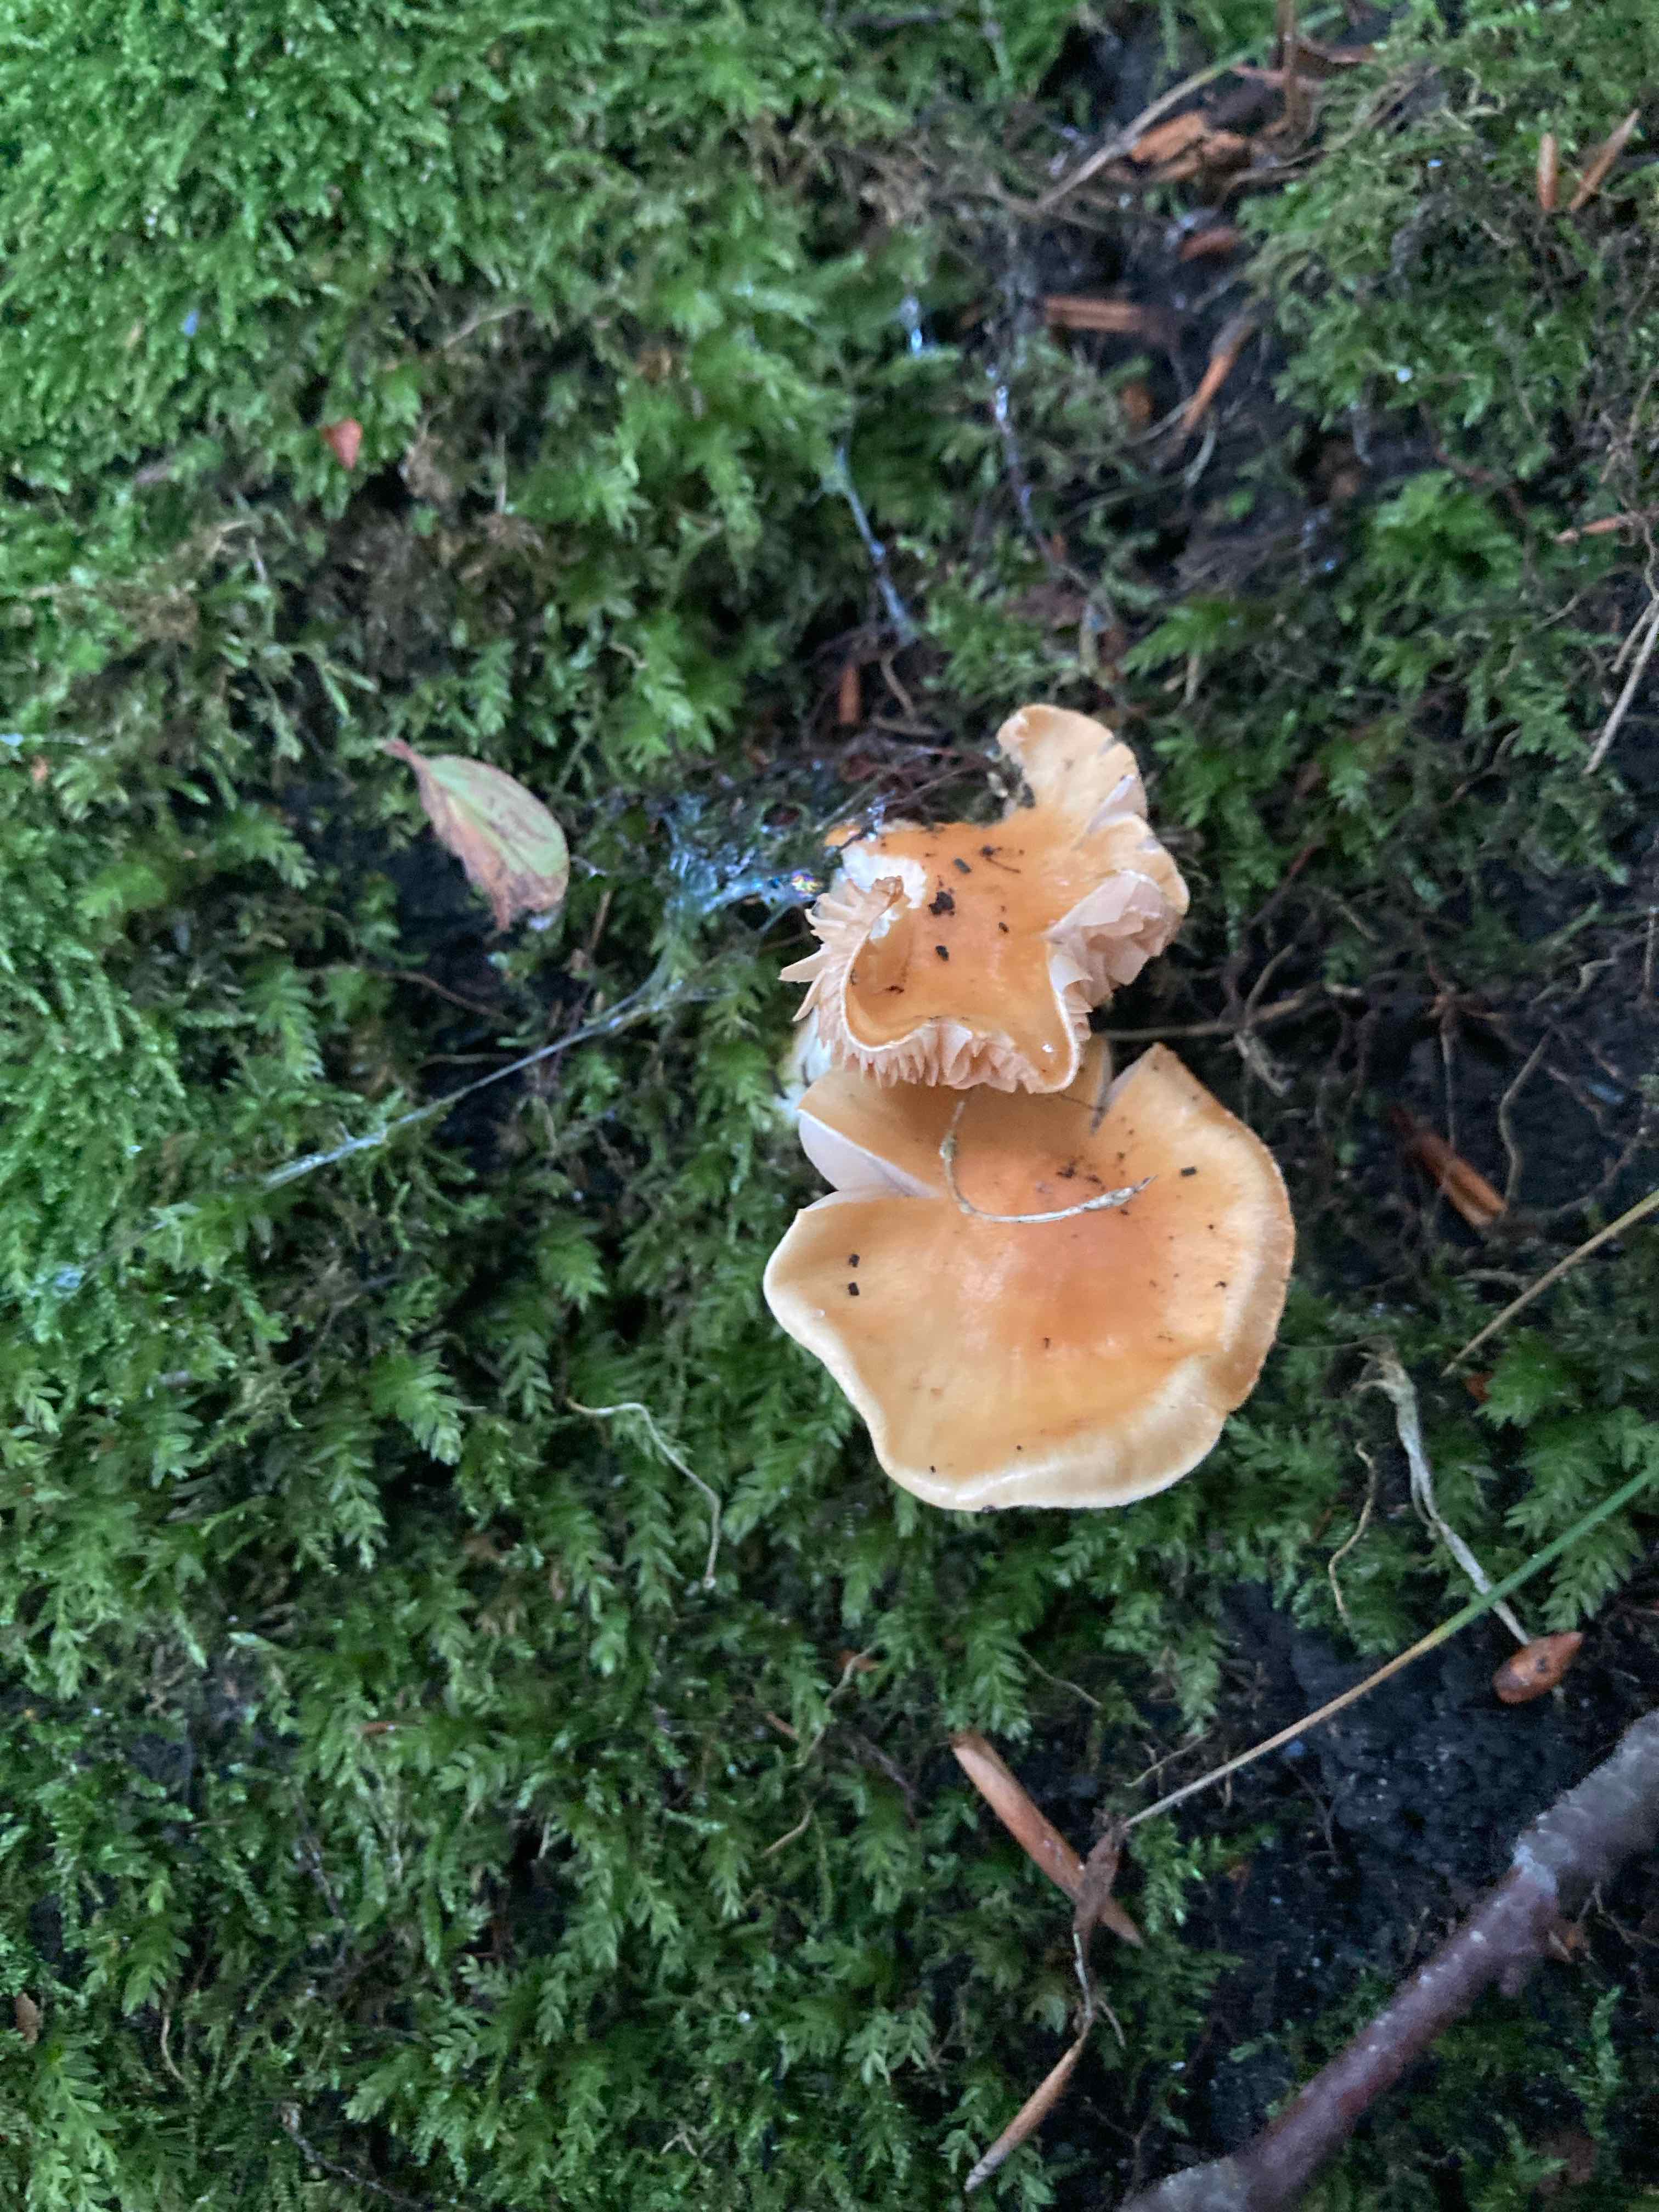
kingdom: Fungi
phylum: Basidiomycota
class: Agaricomycetes
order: Agaricales
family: Cortinariaceae
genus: Thaxterogaster
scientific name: Thaxterogaster
